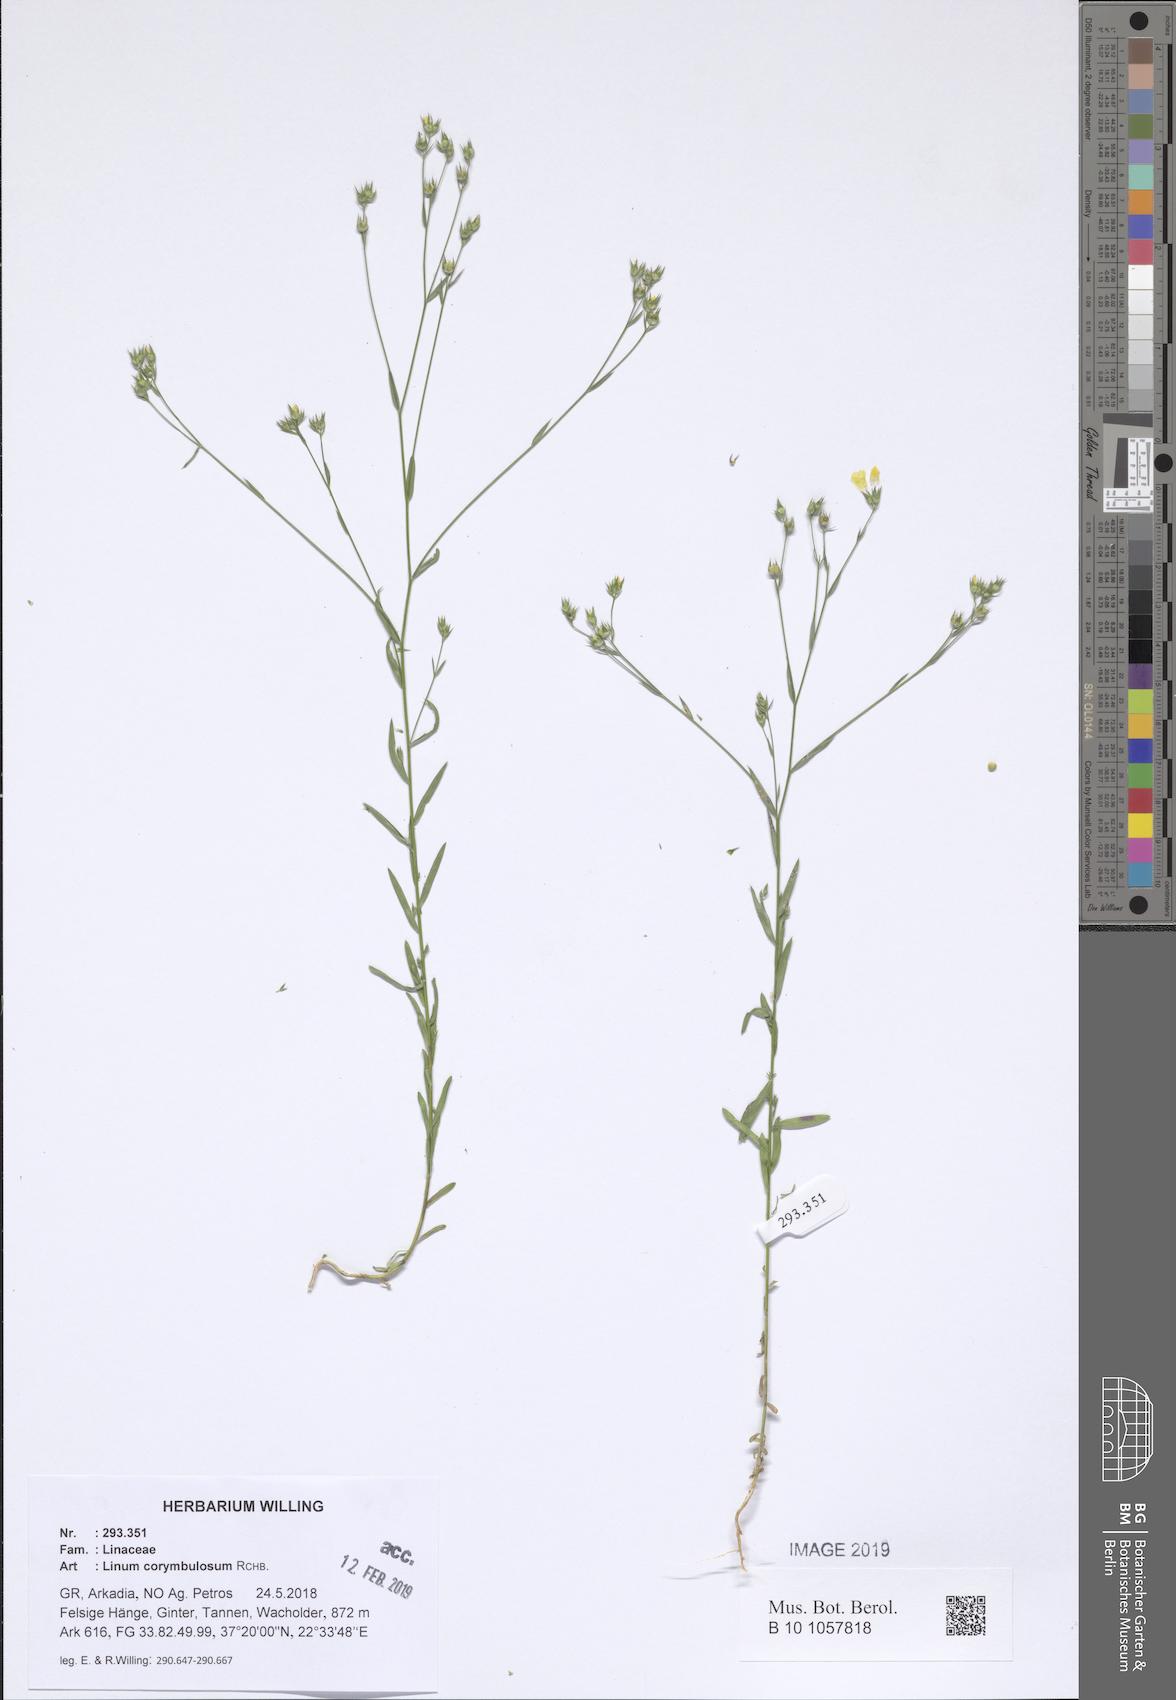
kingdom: Plantae
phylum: Tracheophyta
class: Magnoliopsida
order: Malpighiales
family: Linaceae
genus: Linum
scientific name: Linum corymbulosum
